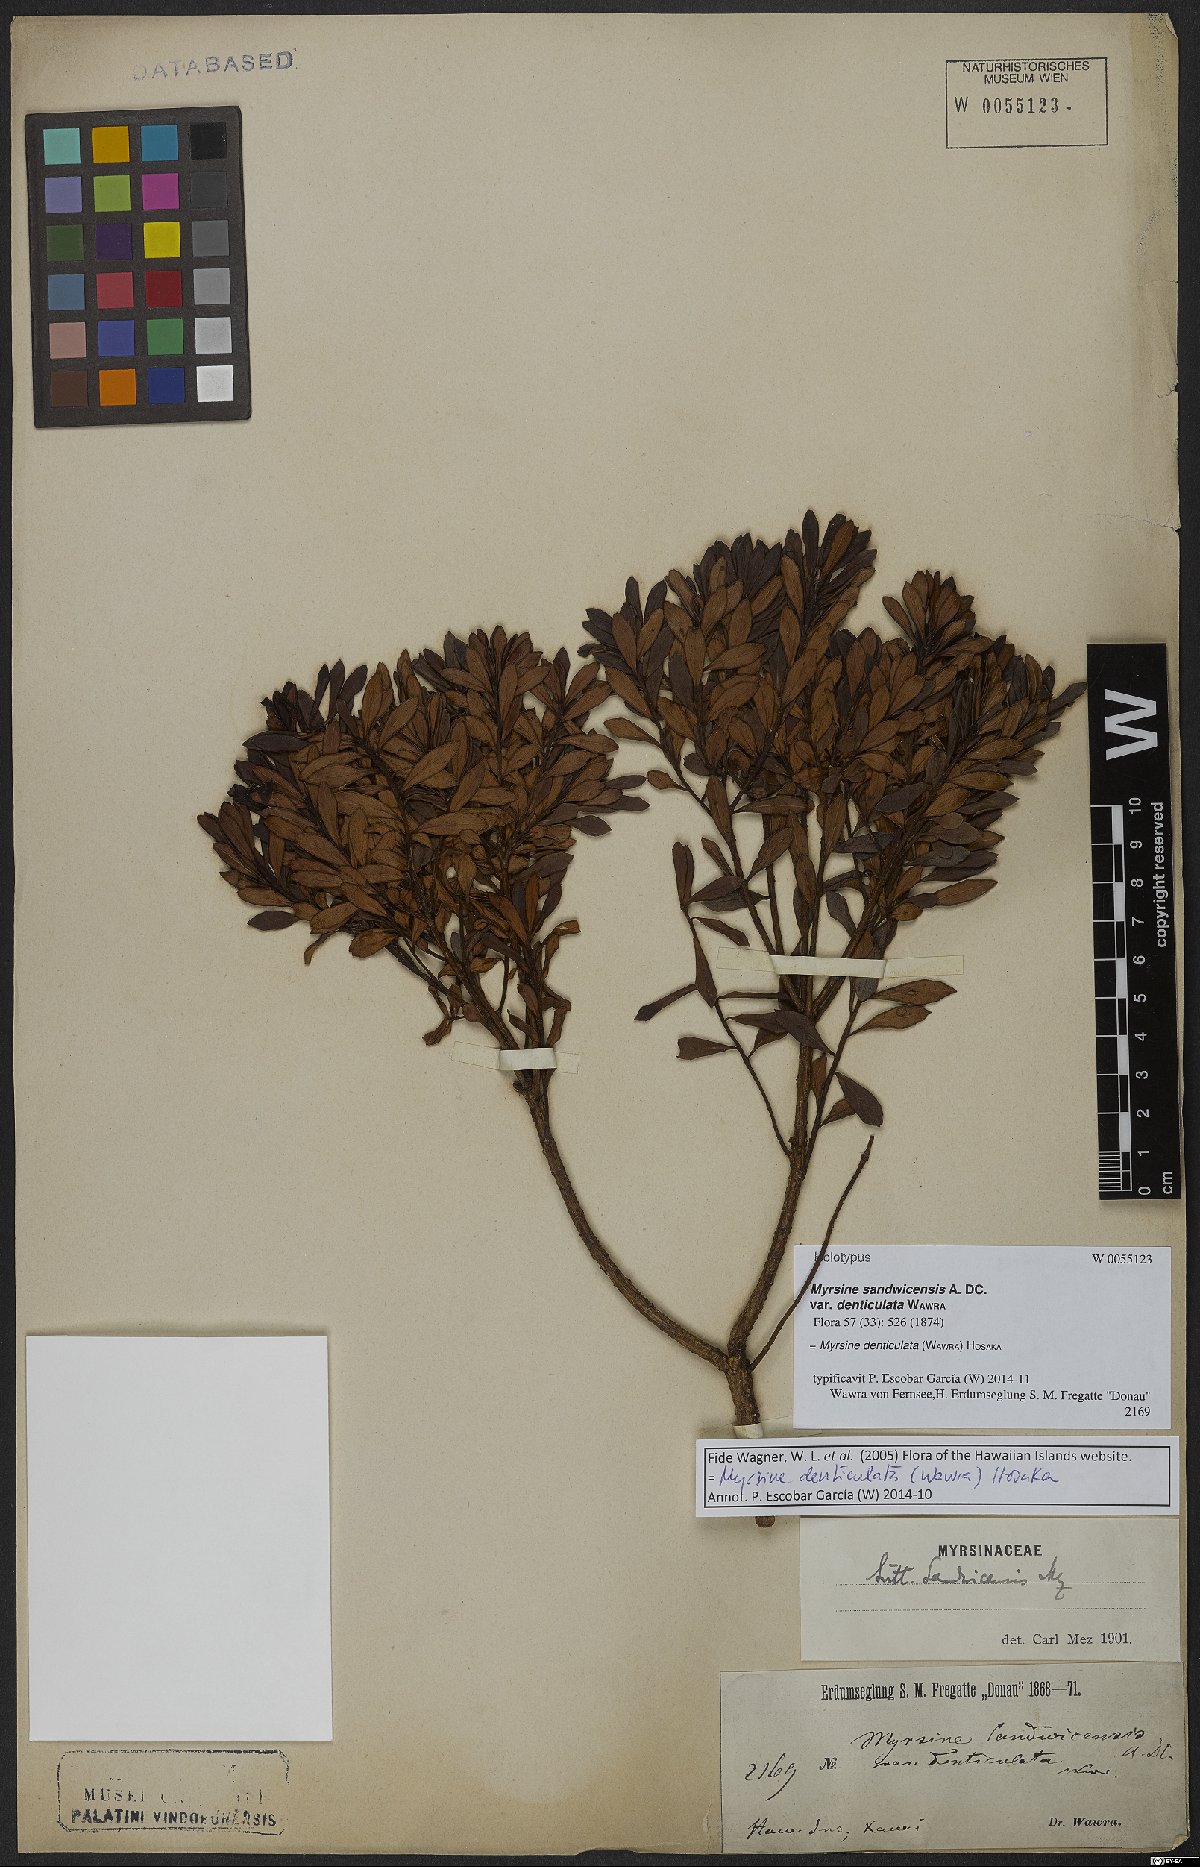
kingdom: Plantae
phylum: Tracheophyta
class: Magnoliopsida
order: Ericales
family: Primulaceae
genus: Myrsine
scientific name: Myrsine denticulata
